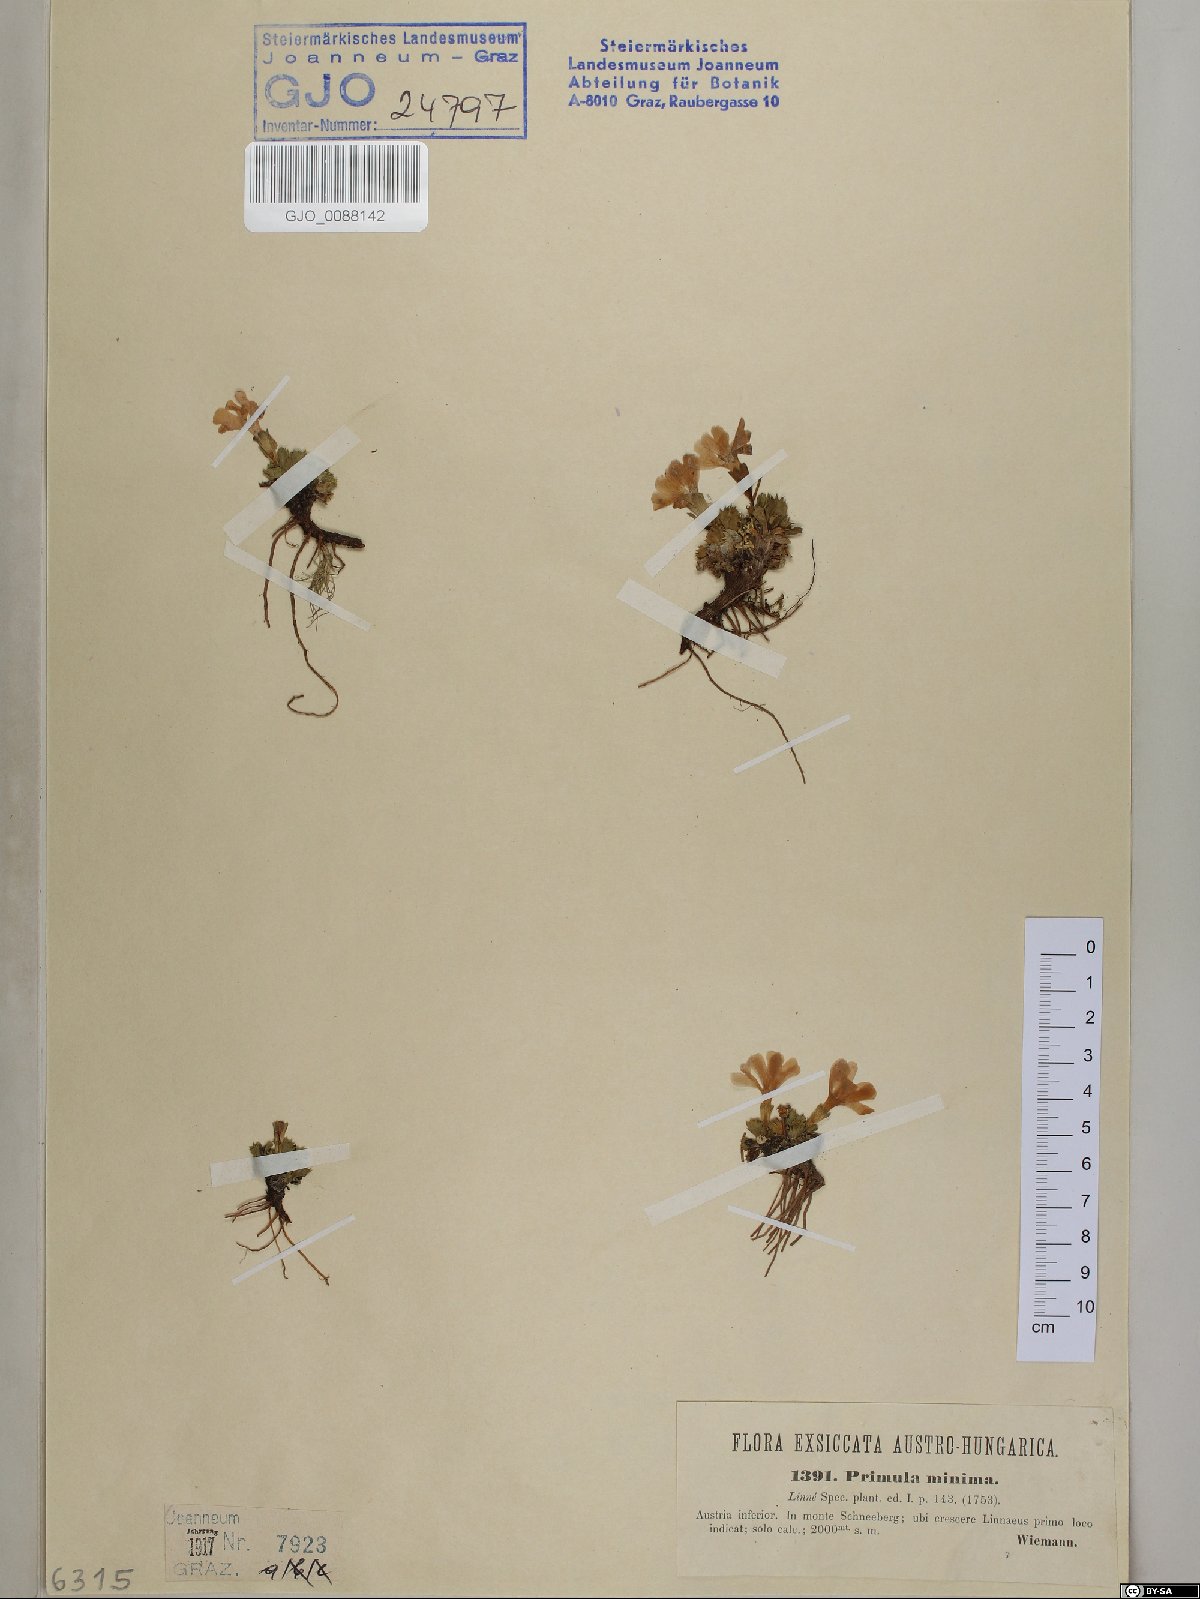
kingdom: Plantae
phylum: Tracheophyta
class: Magnoliopsida
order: Ericales
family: Primulaceae
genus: Primula
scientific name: Primula minima
